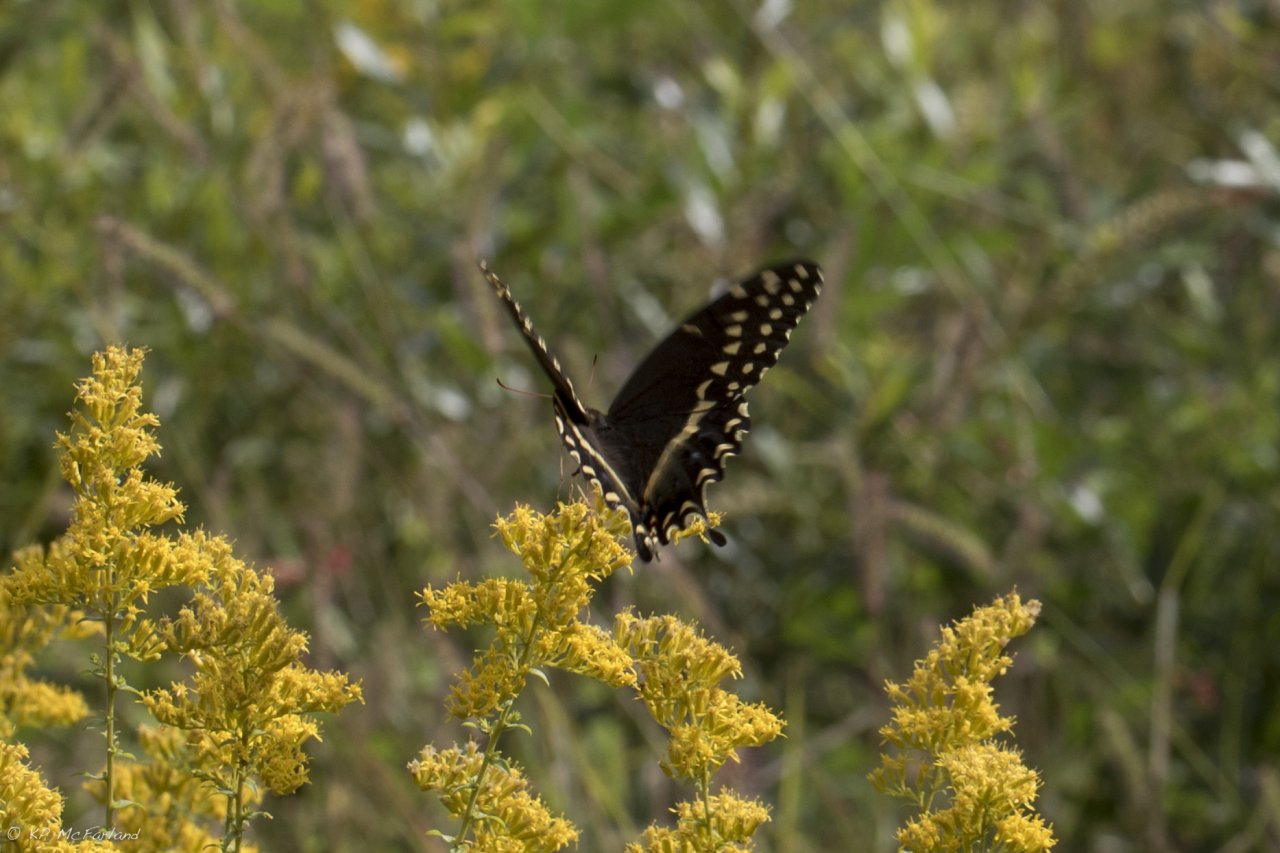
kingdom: Animalia
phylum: Arthropoda
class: Insecta
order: Lepidoptera
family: Papilionidae
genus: Pterourus
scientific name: Pterourus palamedes
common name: Palamedes Swallowtail
